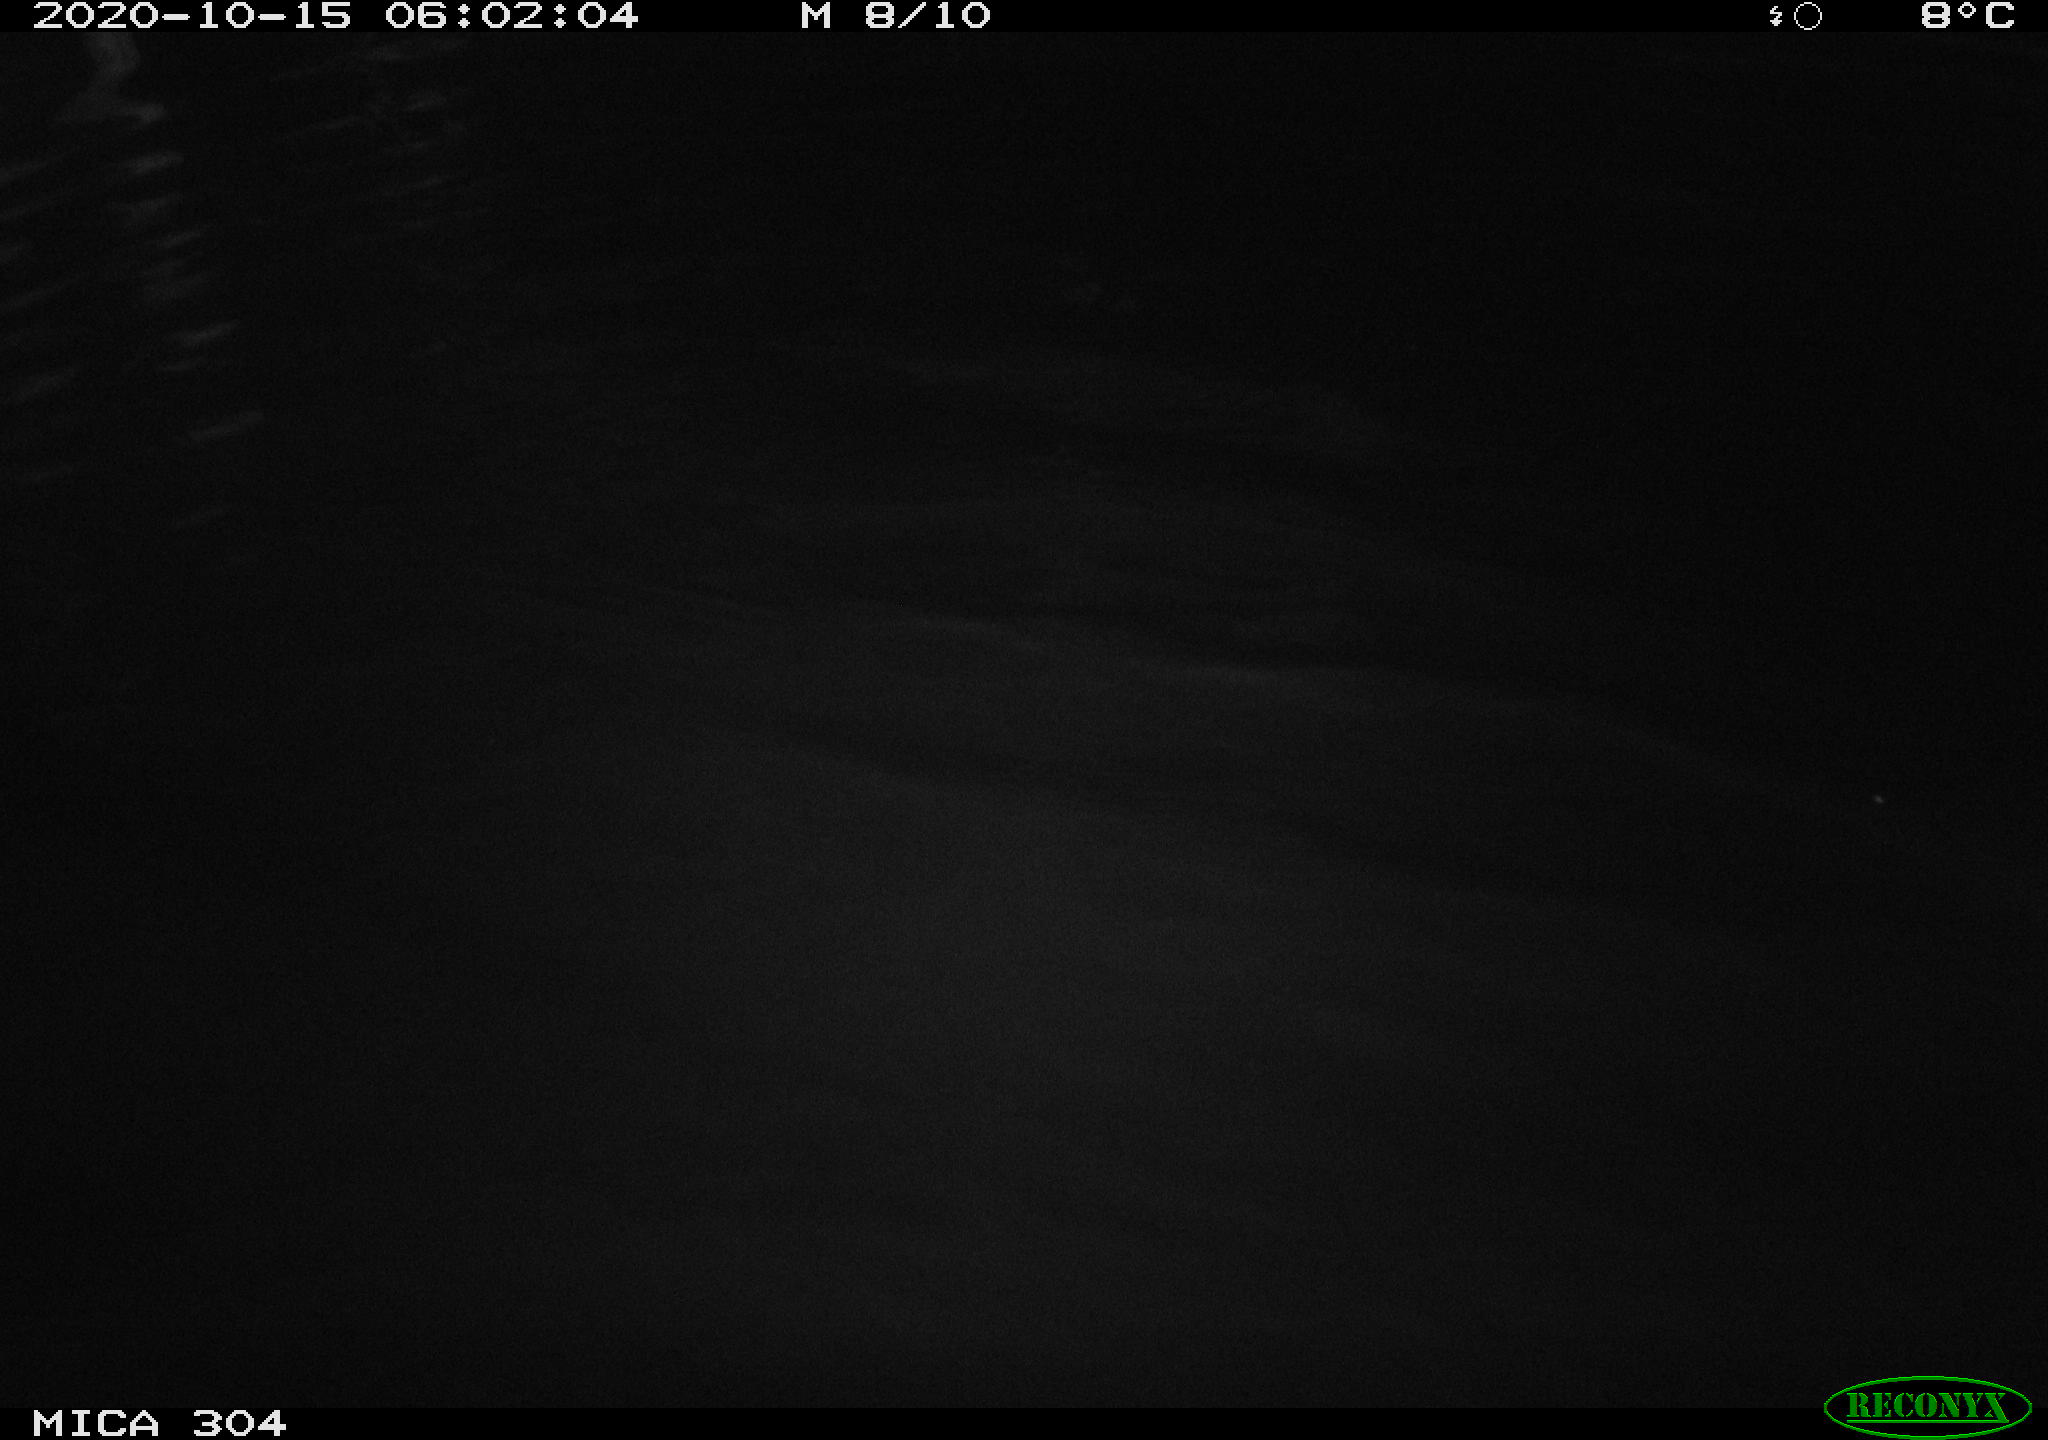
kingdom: Animalia
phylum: Chordata
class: Mammalia
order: Rodentia
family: Cricetidae
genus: Ondatra
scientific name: Ondatra zibethicus
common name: Muskrat
